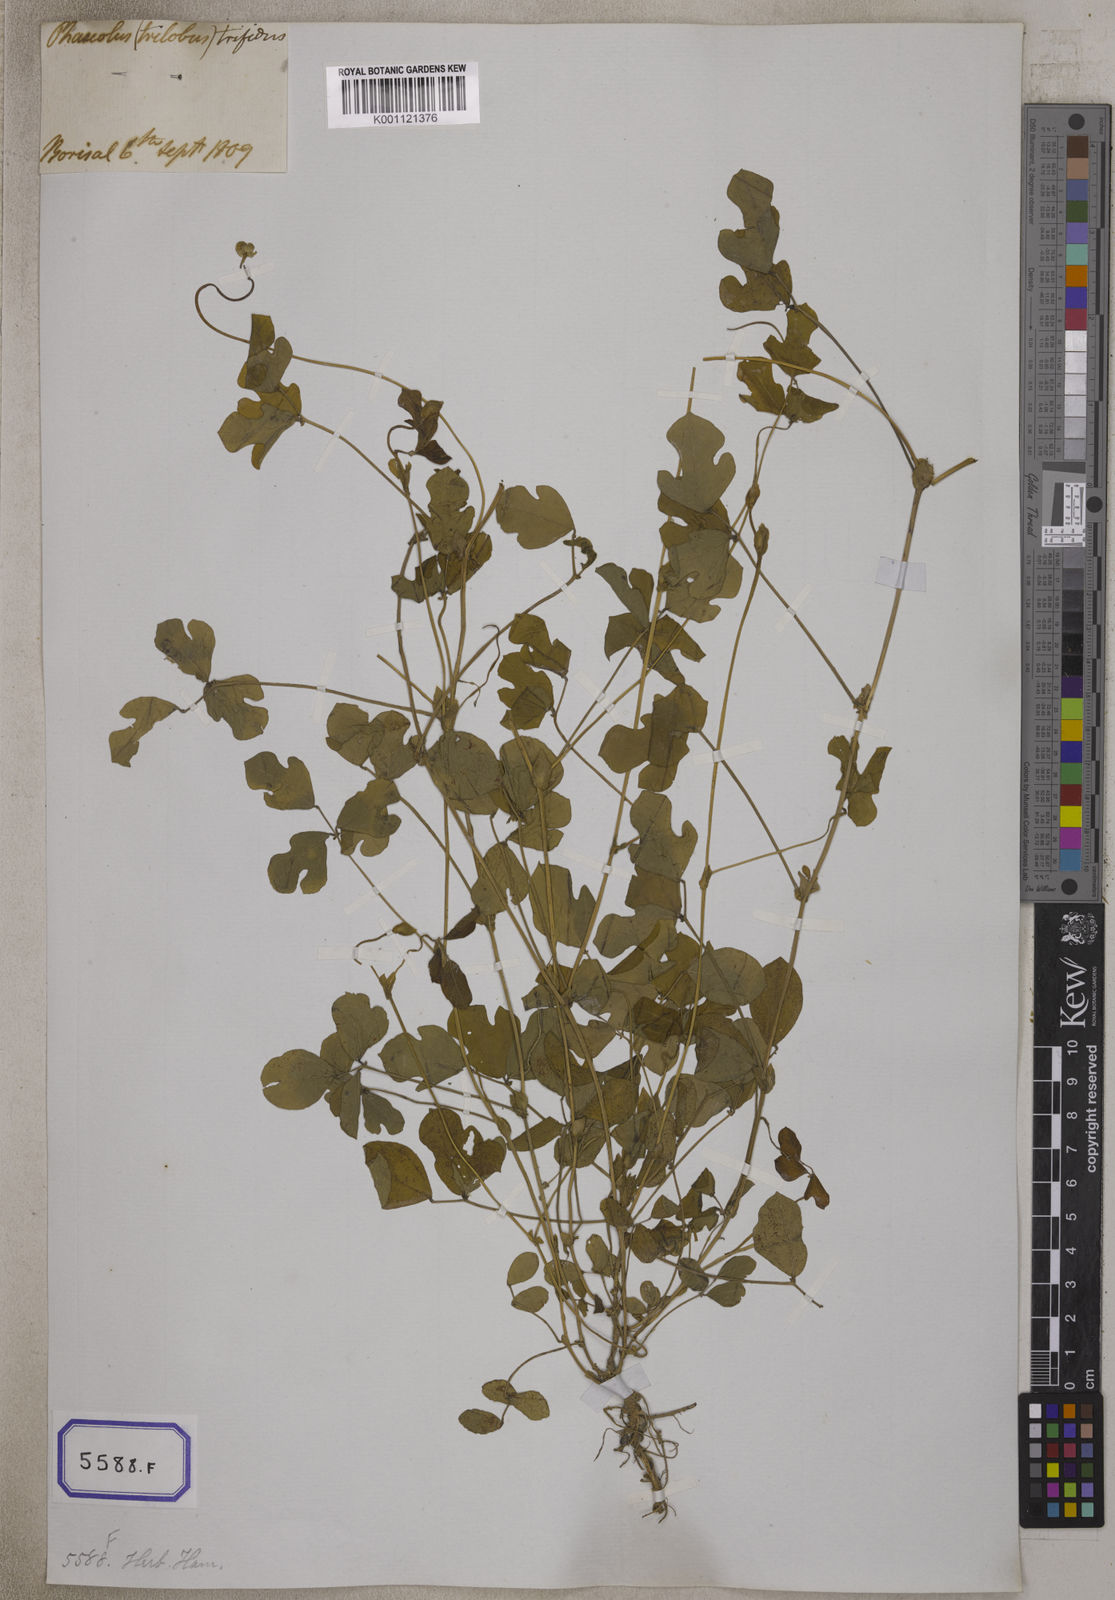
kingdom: Plantae
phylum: Tracheophyta
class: Magnoliopsida
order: Fabales
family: Fabaceae
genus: Phaseolus
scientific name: Phaseolus
